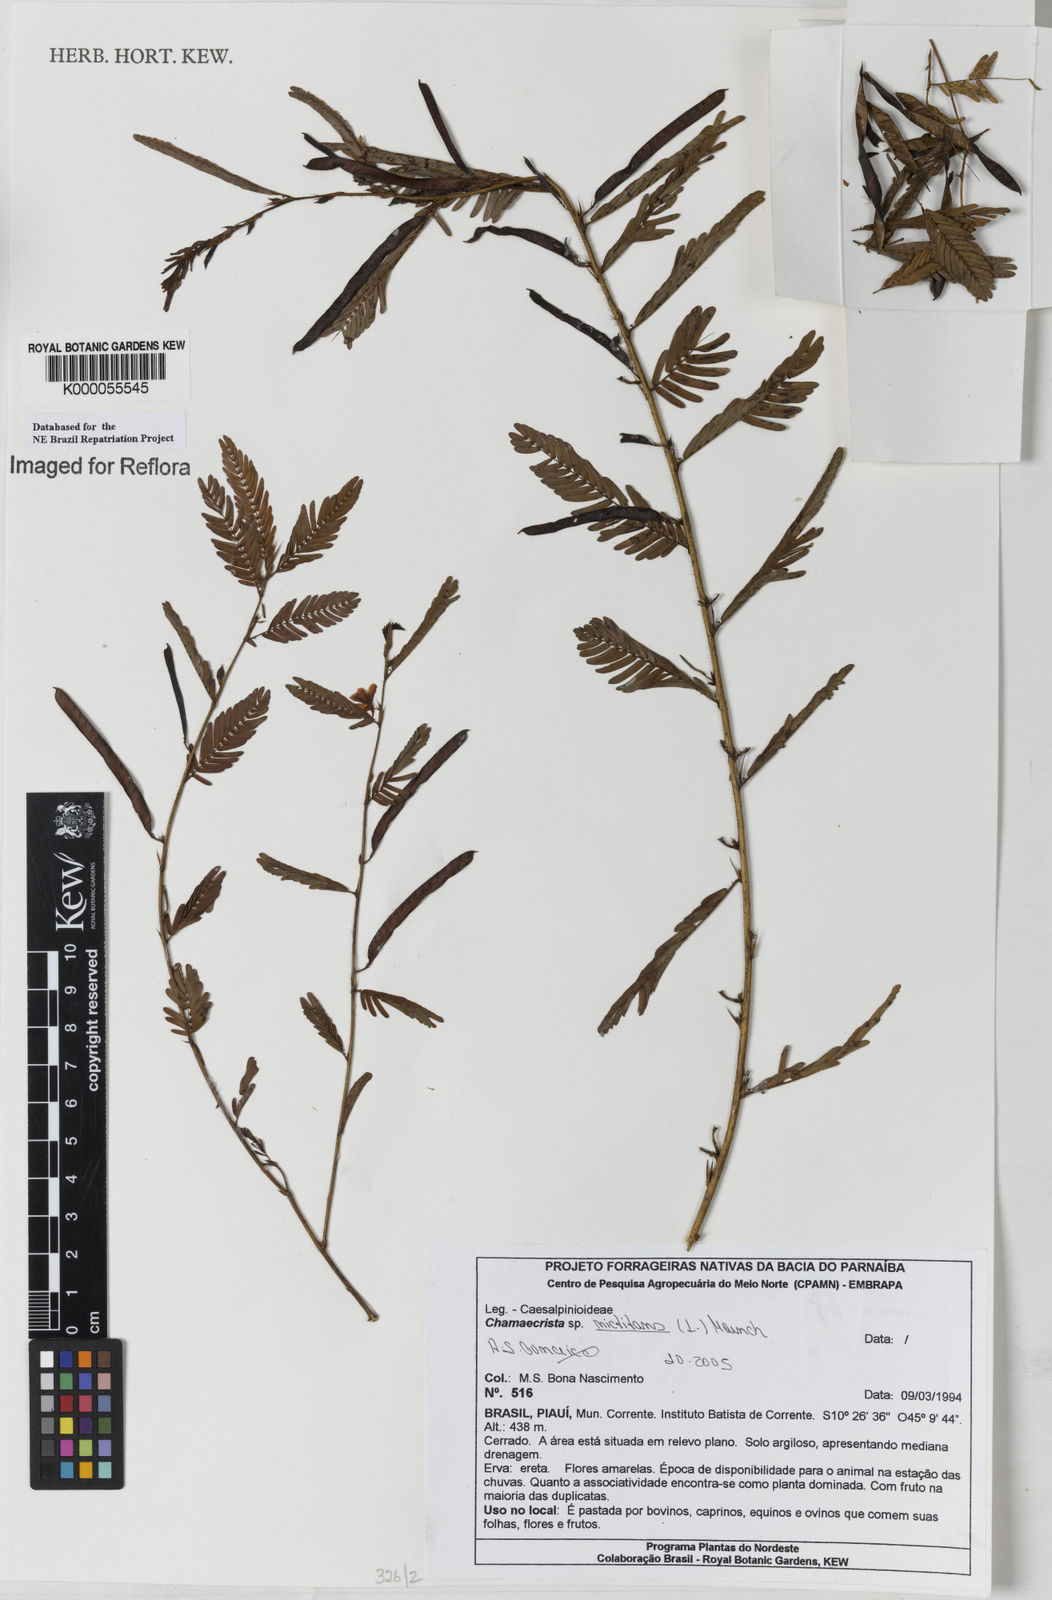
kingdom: Plantae
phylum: Tracheophyta
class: Magnoliopsida
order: Fabales
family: Fabaceae
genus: Chamaecrista
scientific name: Chamaecrista
